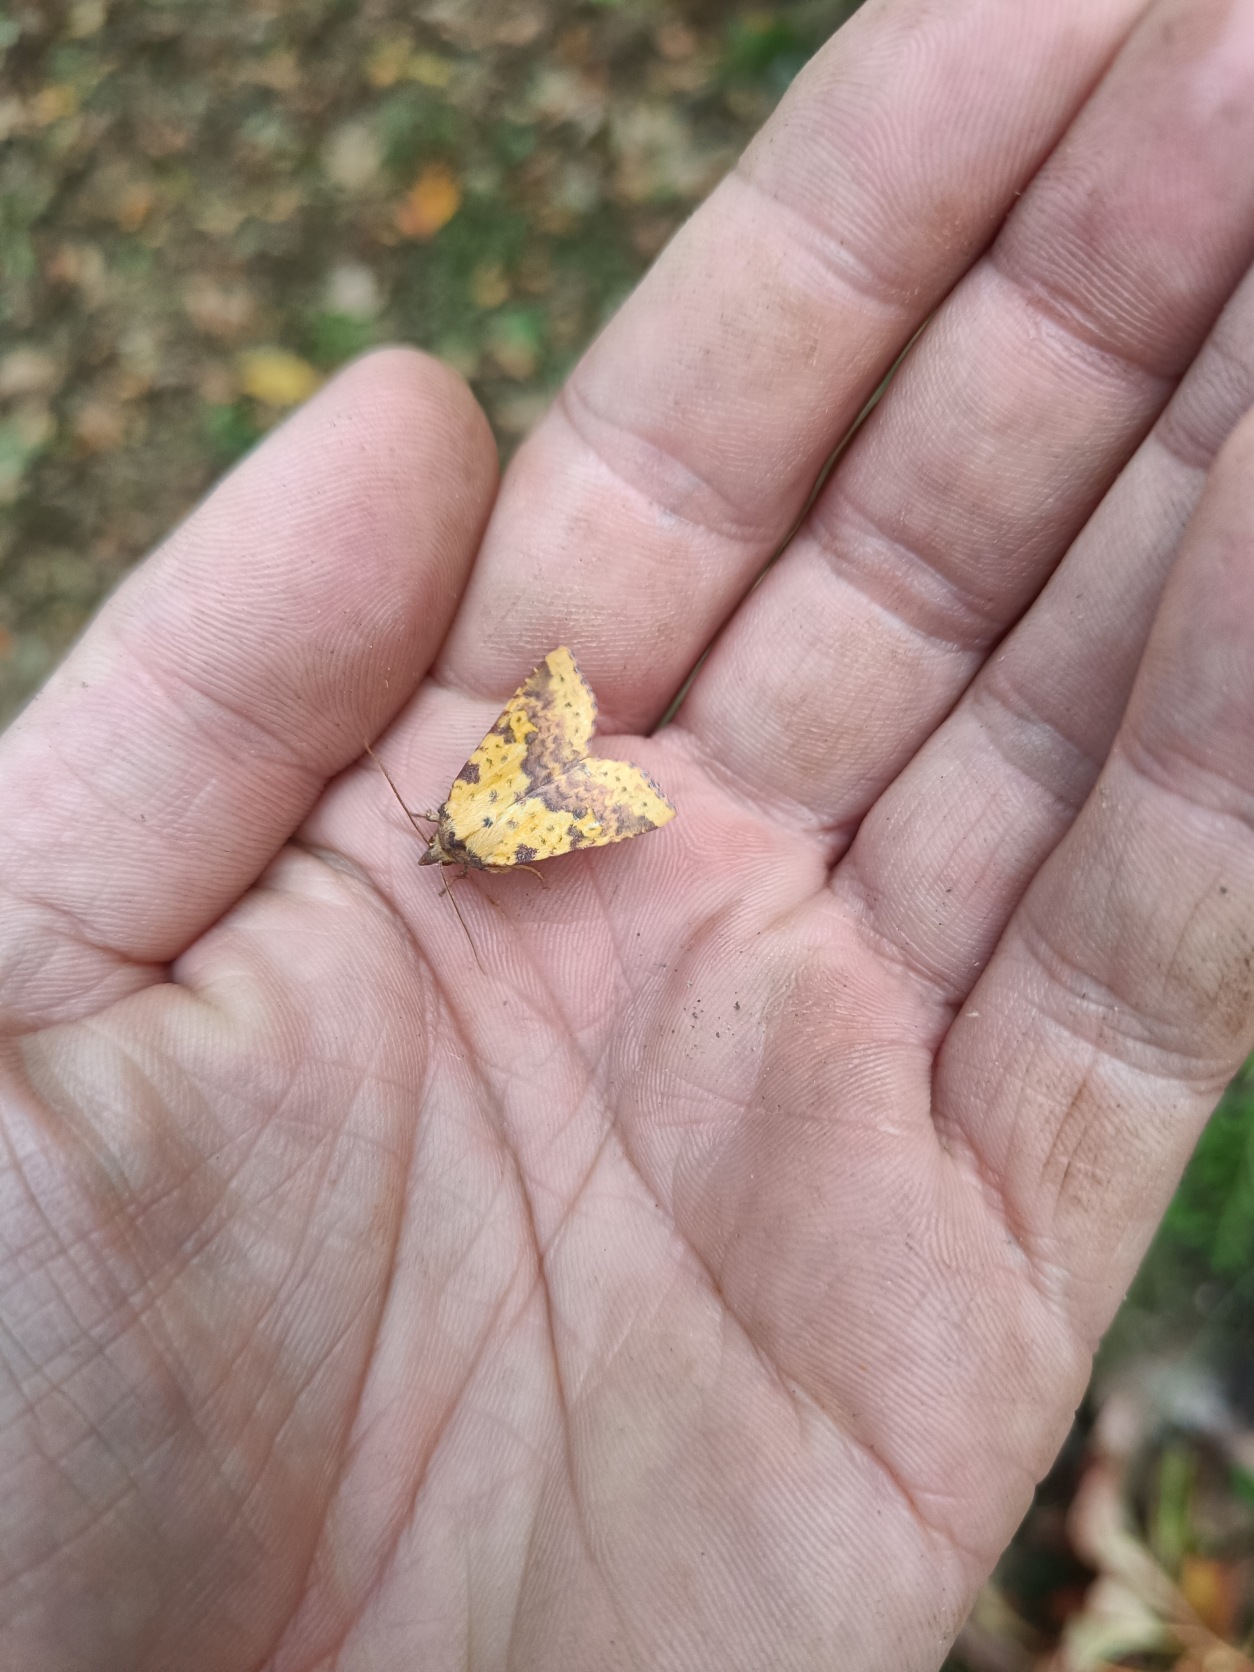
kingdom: Animalia
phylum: Arthropoda
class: Insecta
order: Lepidoptera
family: Noctuidae
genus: Xanthia
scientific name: Xanthia togata
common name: Toga-septemberugle
